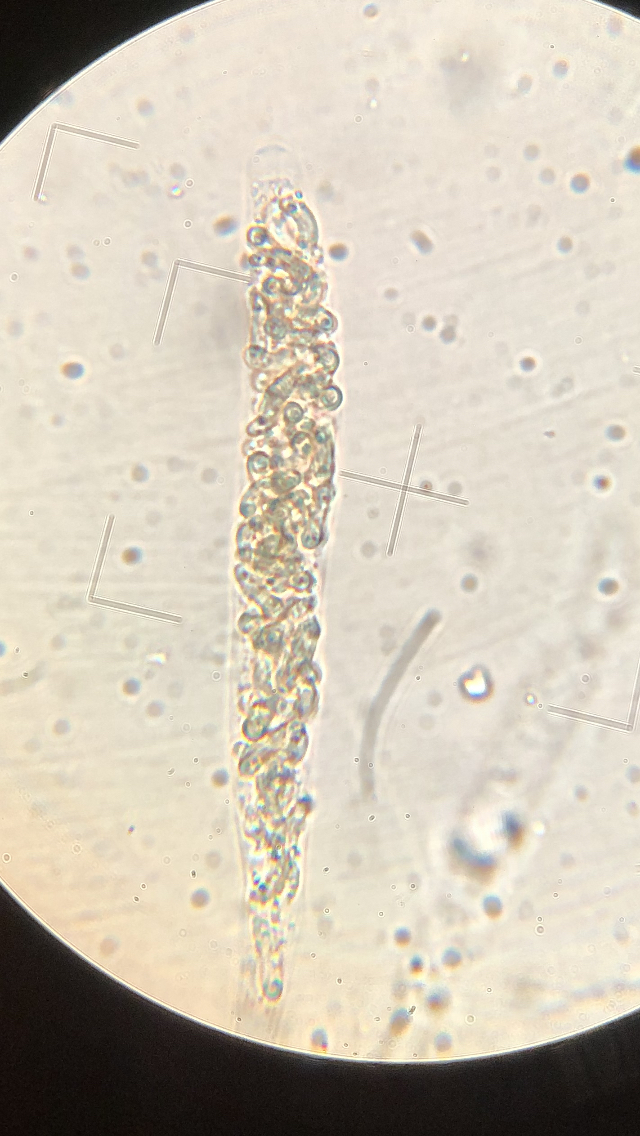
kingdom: Fungi
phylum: Ascomycota
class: Sordariomycetes
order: Xylariales
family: Diatrypaceae
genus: Diatrypella
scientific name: Diatrypella quercina
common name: ege-kulskorpe
